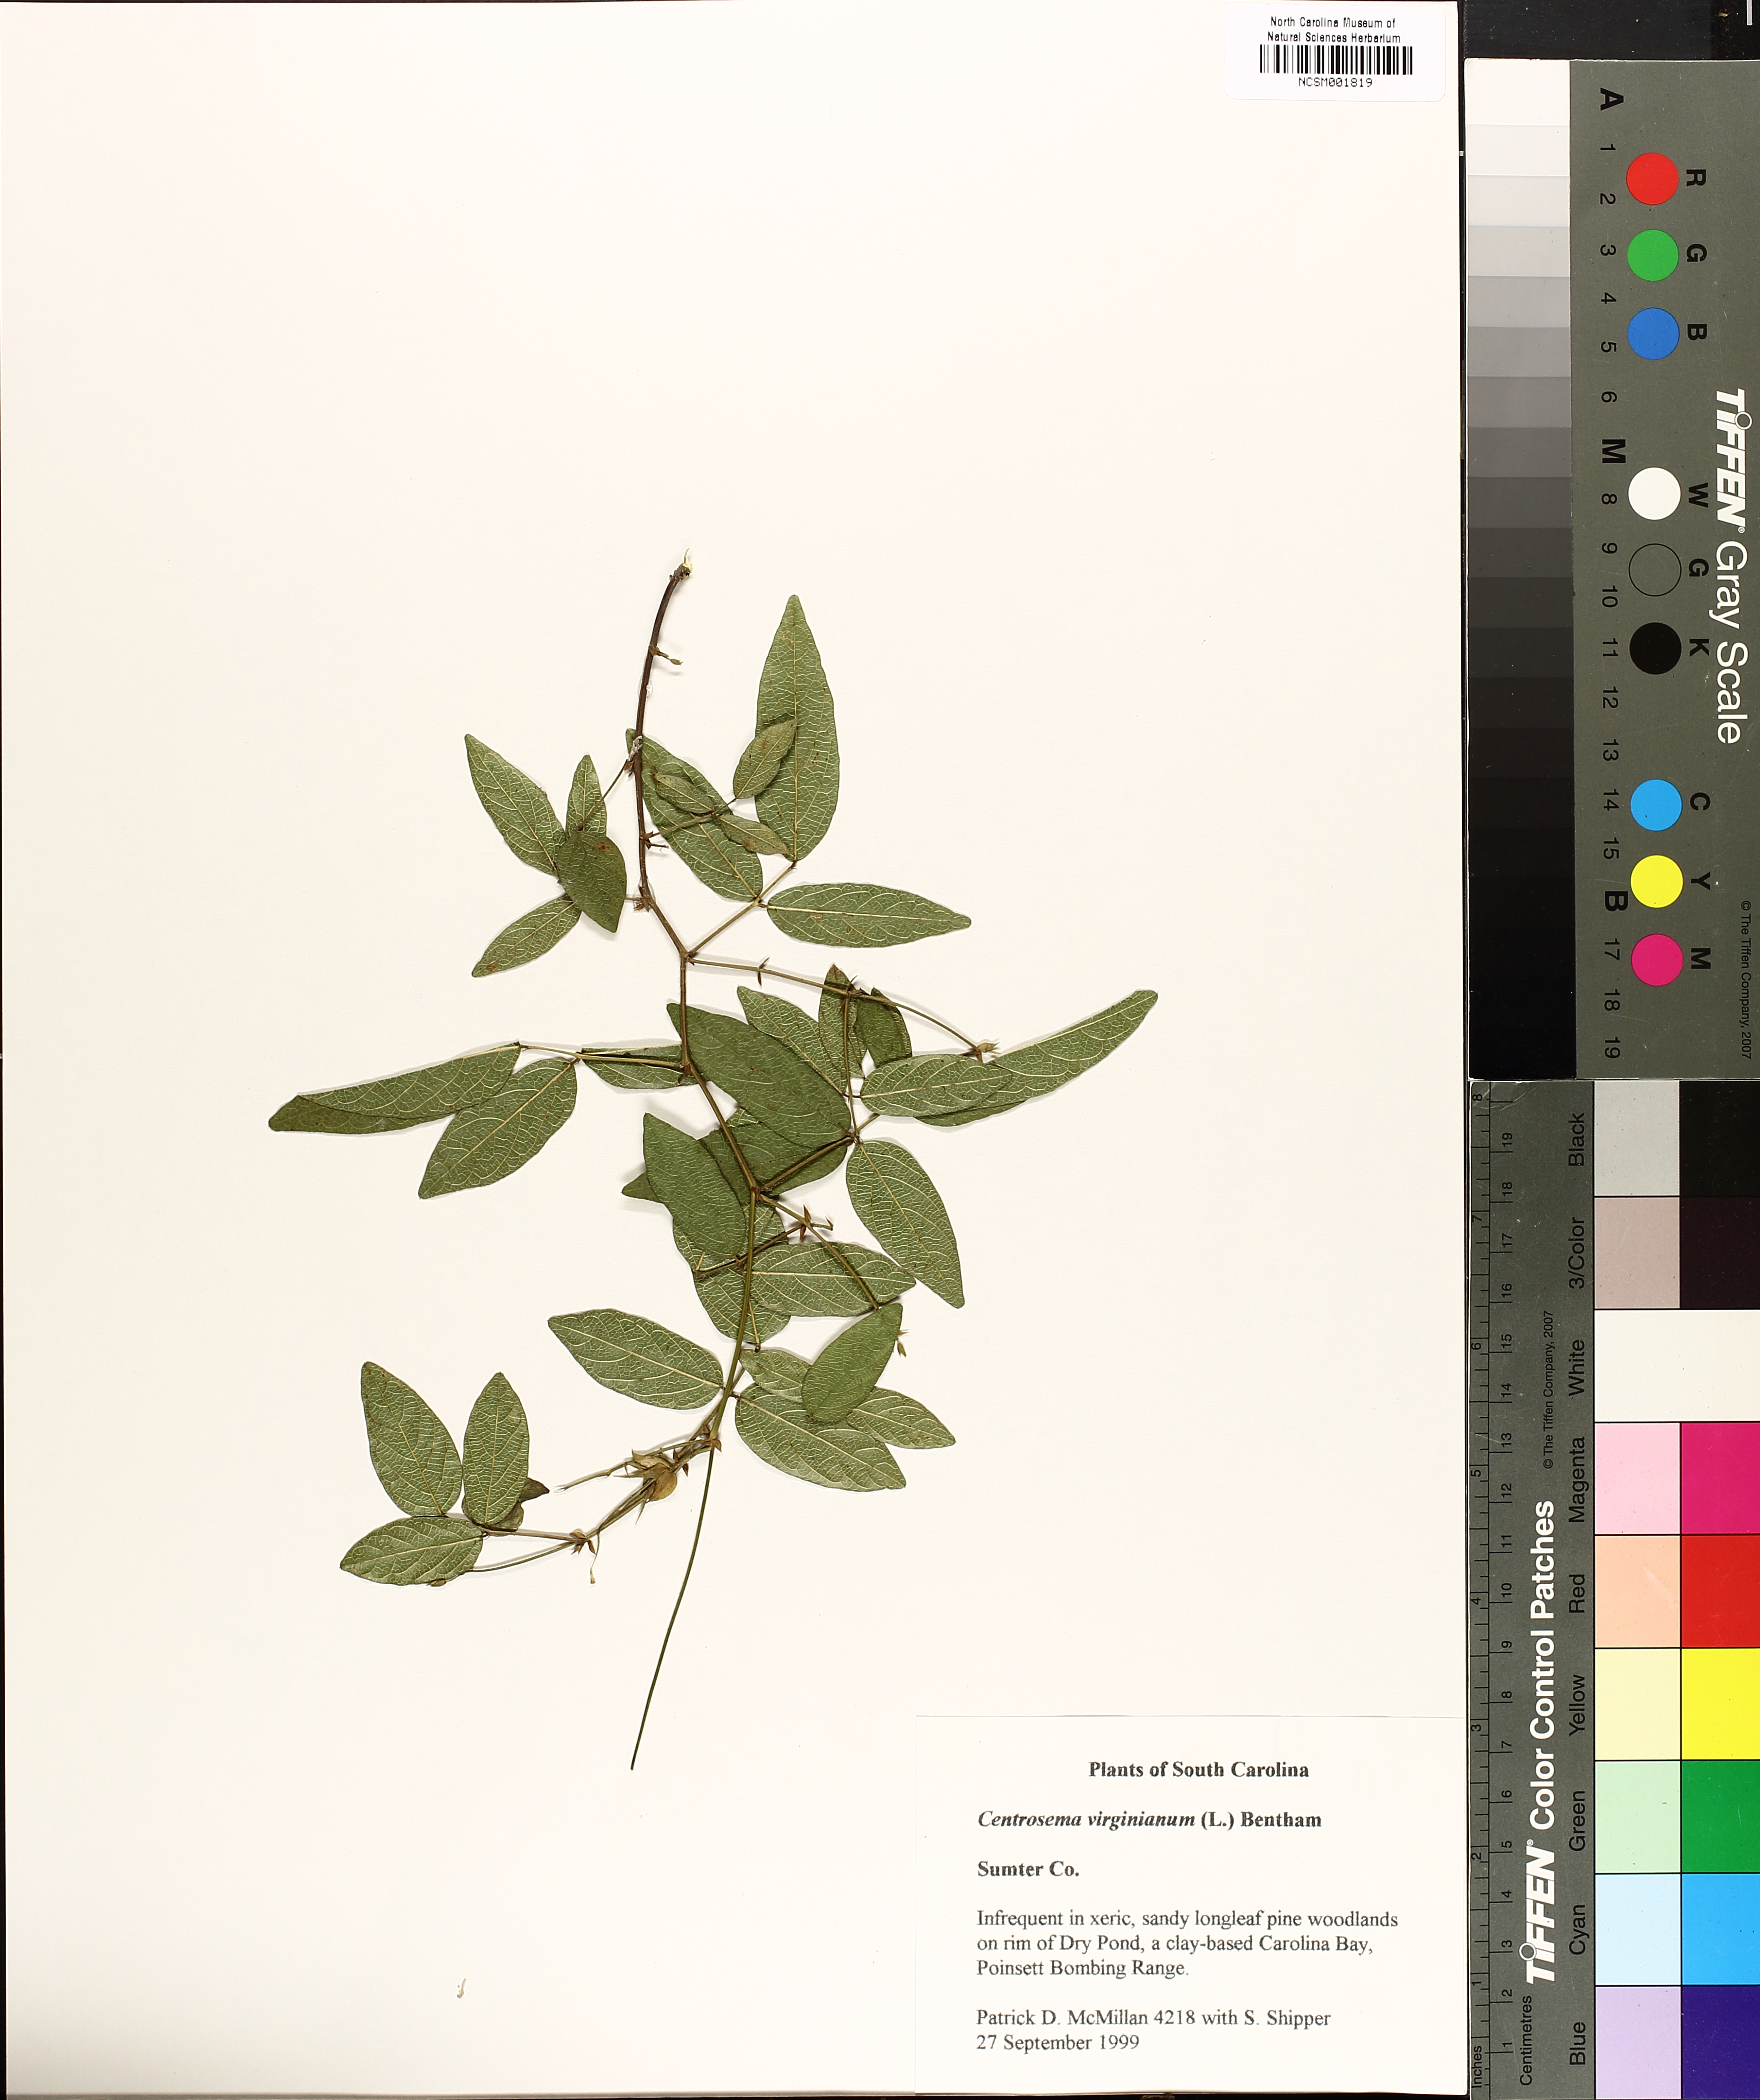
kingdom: Plantae
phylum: Tracheophyta
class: Magnoliopsida
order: Fabales
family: Fabaceae
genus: Centrosema
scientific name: Centrosema virginianum
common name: Butterfly-pea
